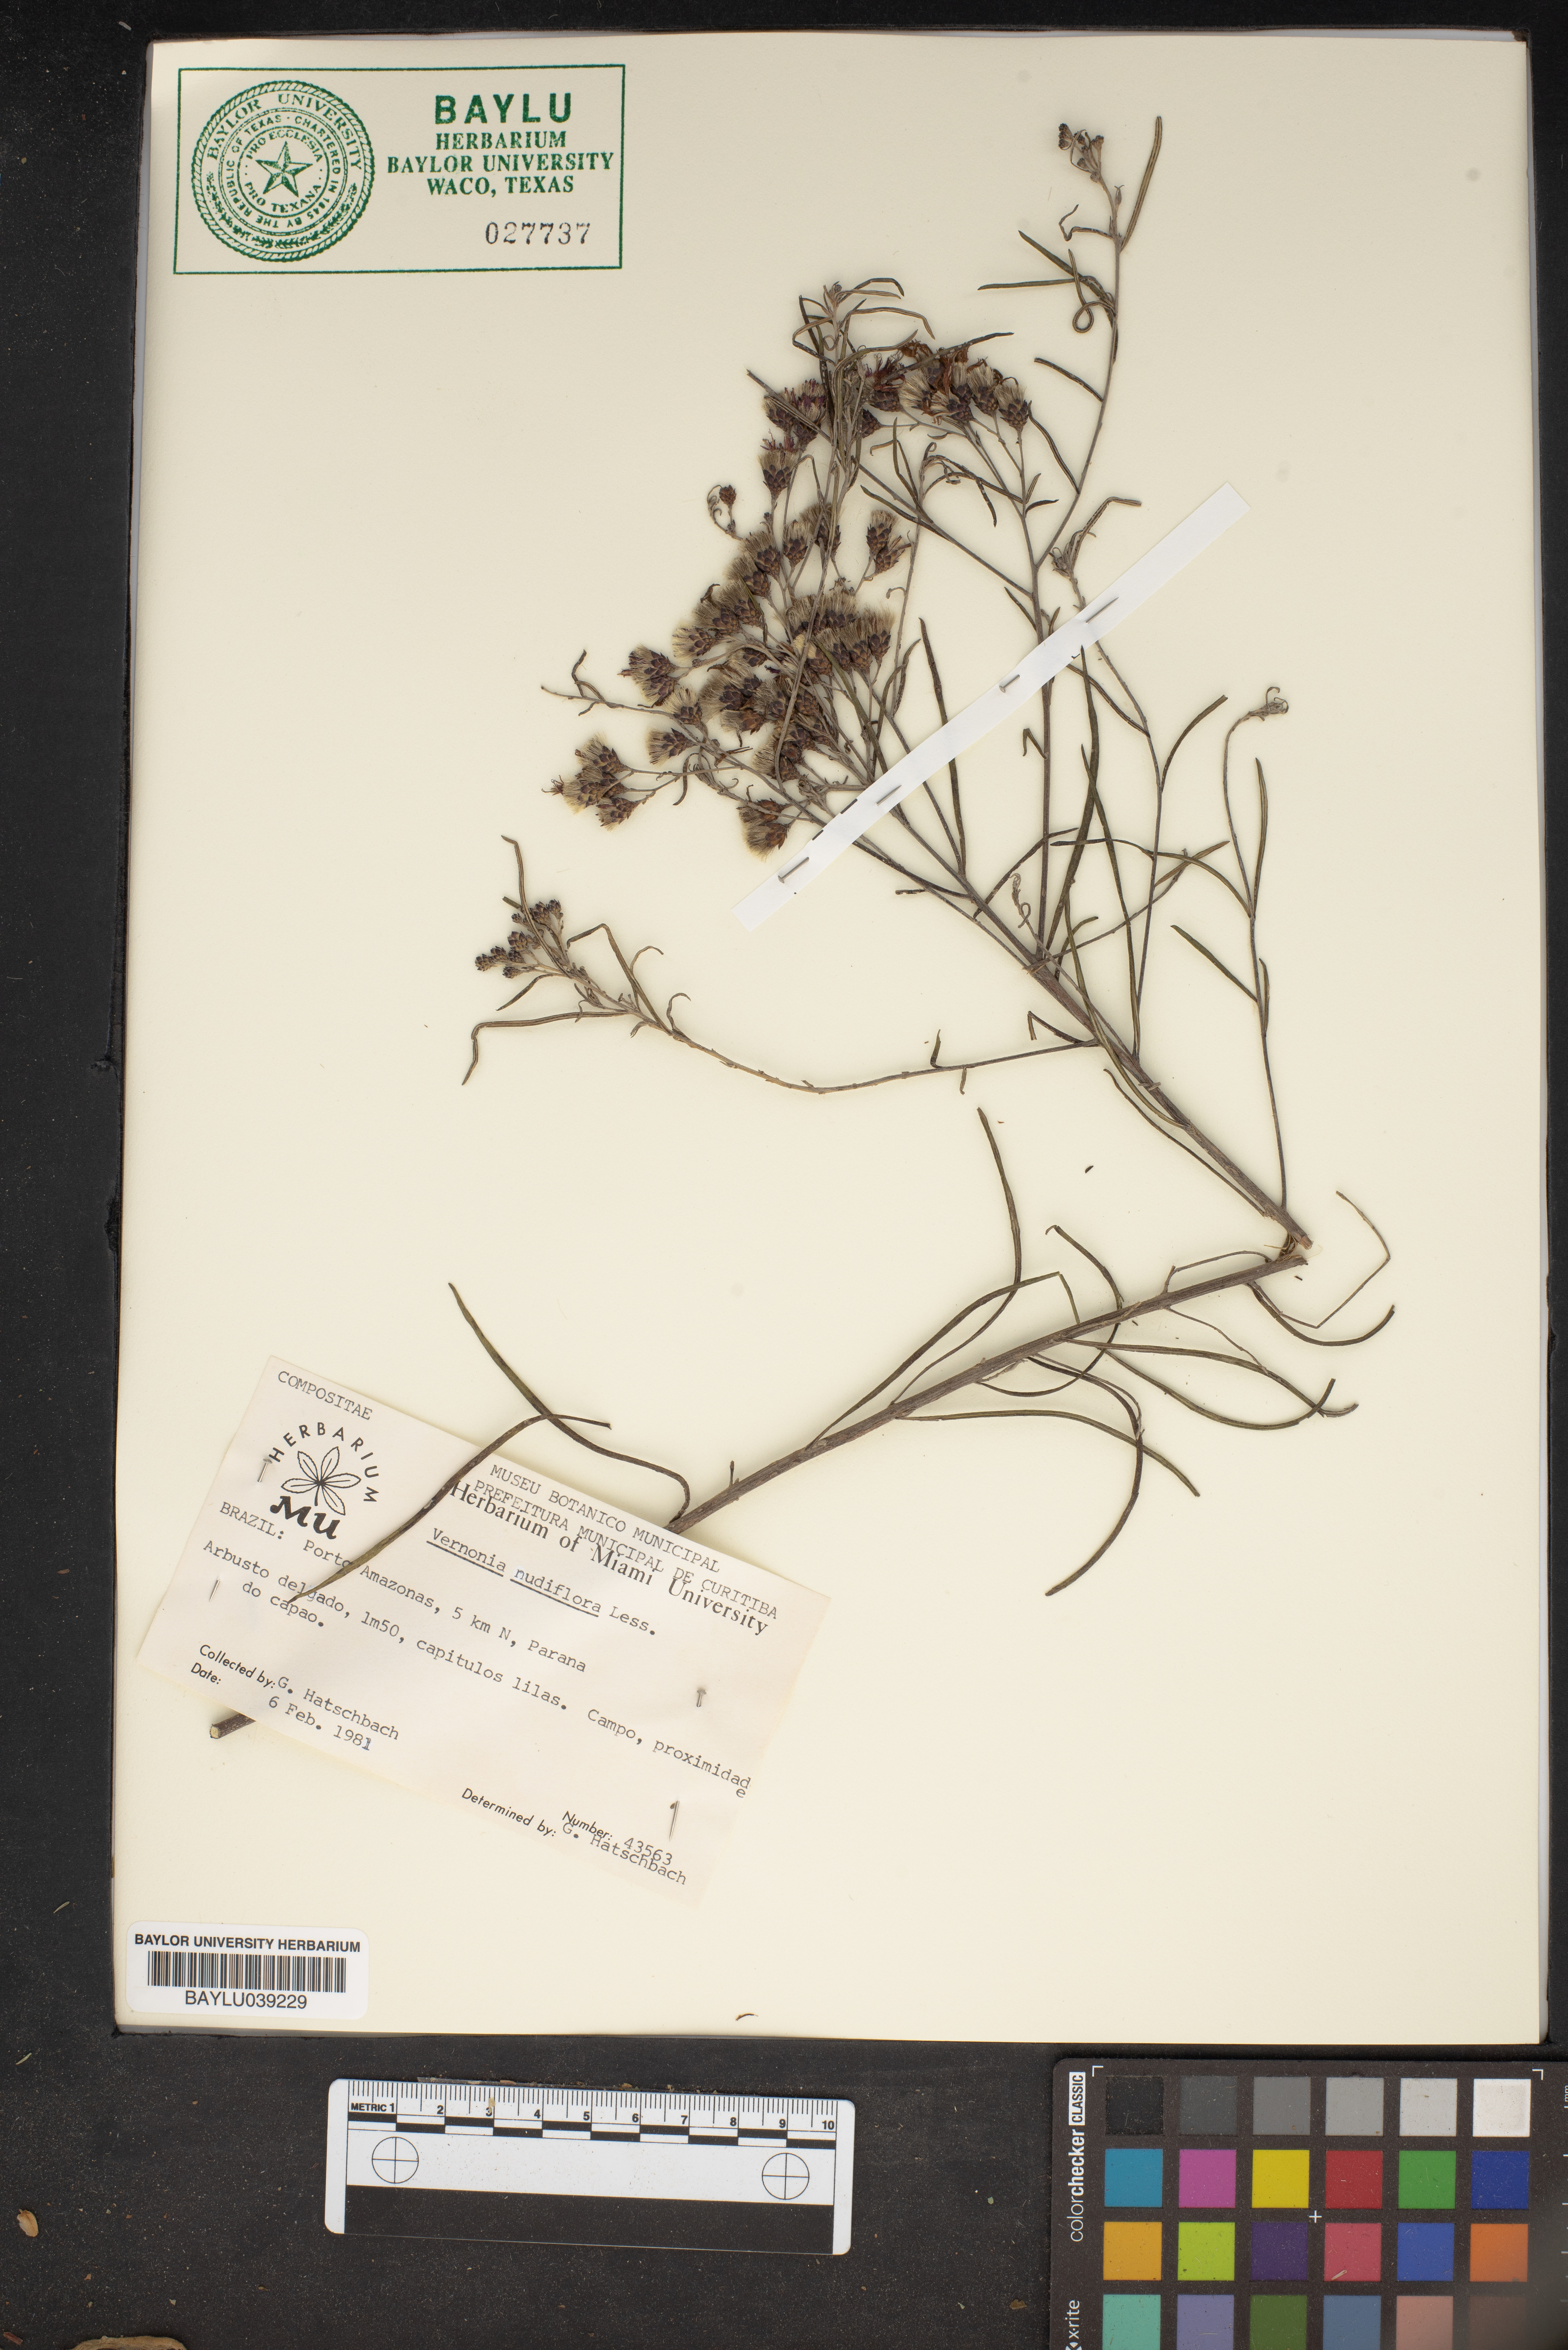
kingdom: Plantae
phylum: Tracheophyta
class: Magnoliopsida
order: Asterales
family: Asteraceae
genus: Vernonanthura
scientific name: Vernonanthura nudiflora
